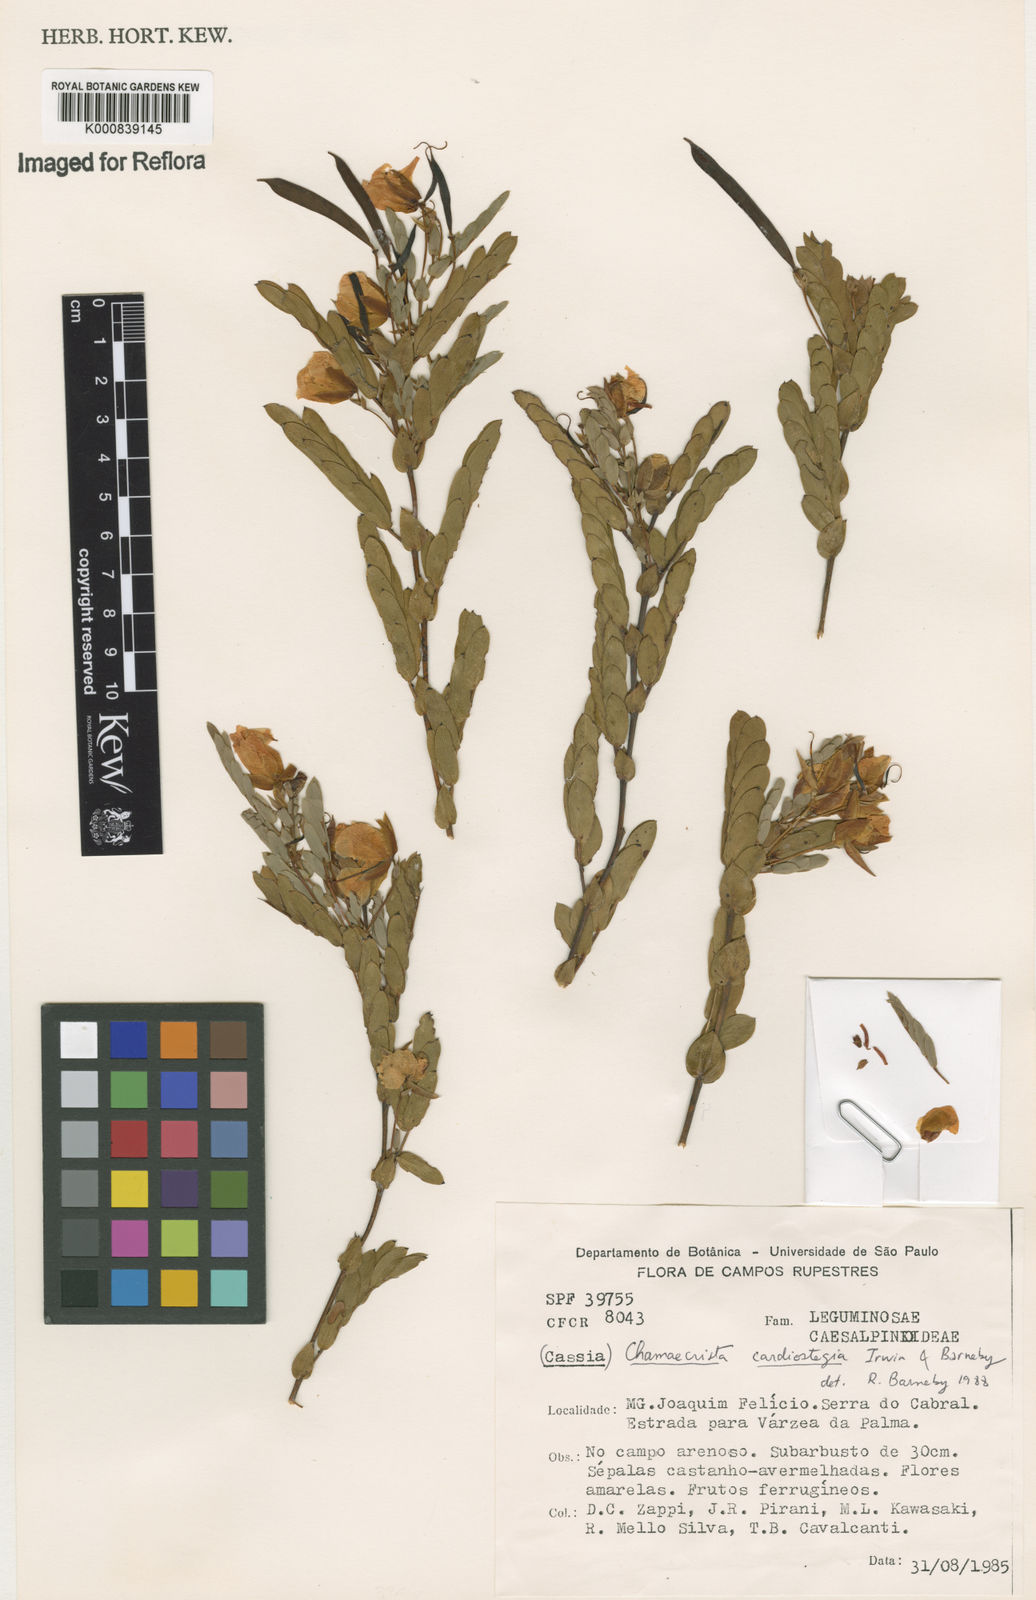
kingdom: Plantae
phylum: Tracheophyta
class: Magnoliopsida
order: Fabales
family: Fabaceae
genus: Chamaecrista
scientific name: Chamaecrista cardiostegia
